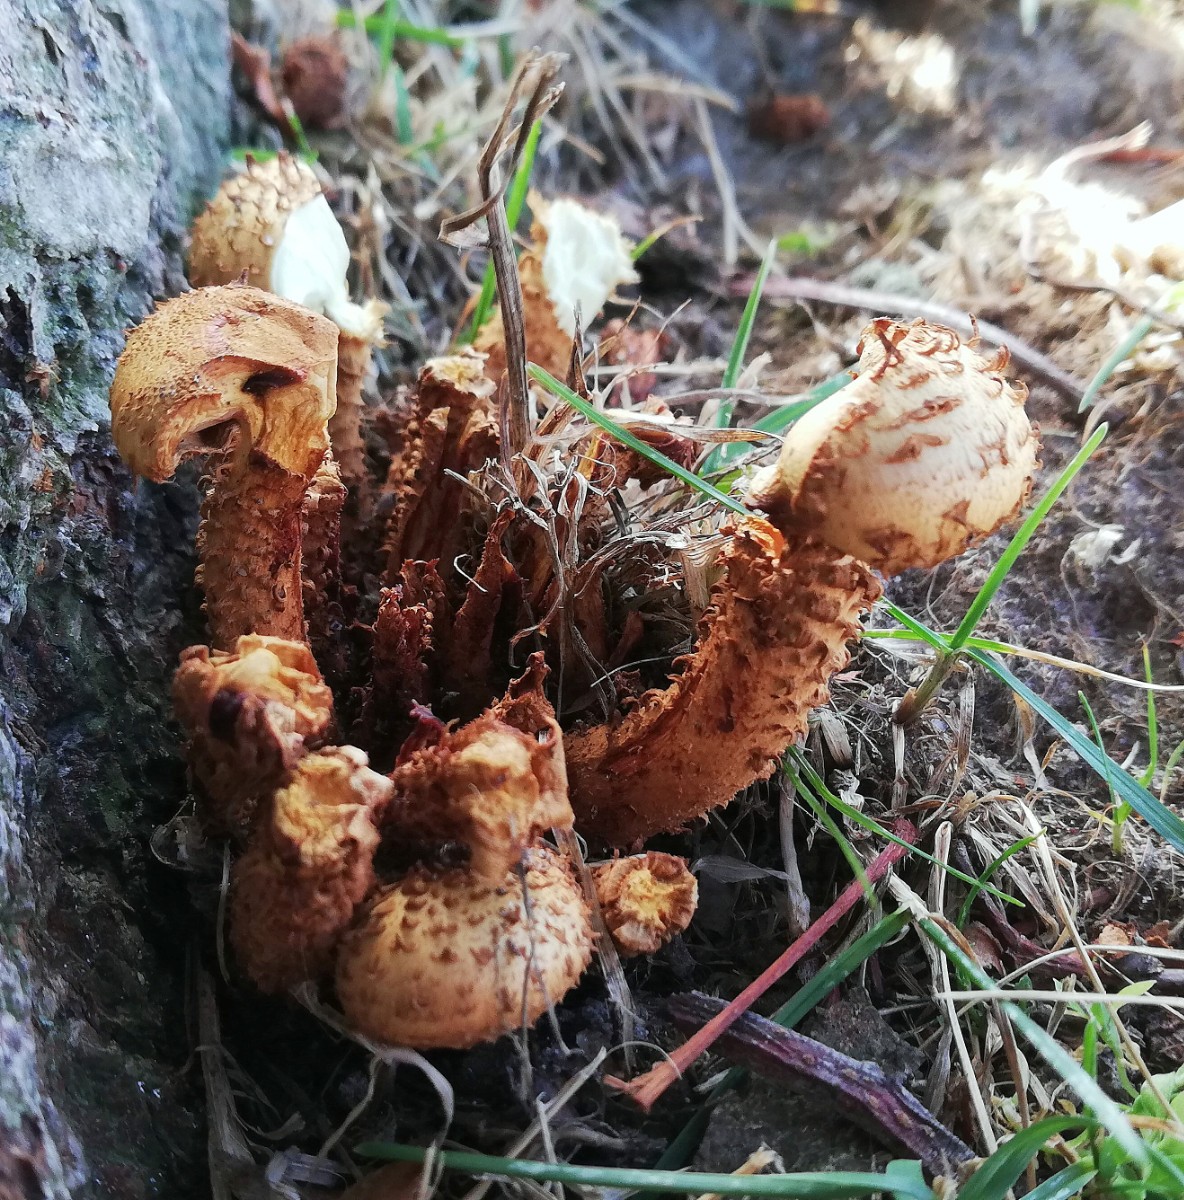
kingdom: Fungi
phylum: Basidiomycota
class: Agaricomycetes
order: Agaricales
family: Strophariaceae
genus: Pholiota
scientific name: Pholiota squarrosa
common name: krumskællet skælhat
